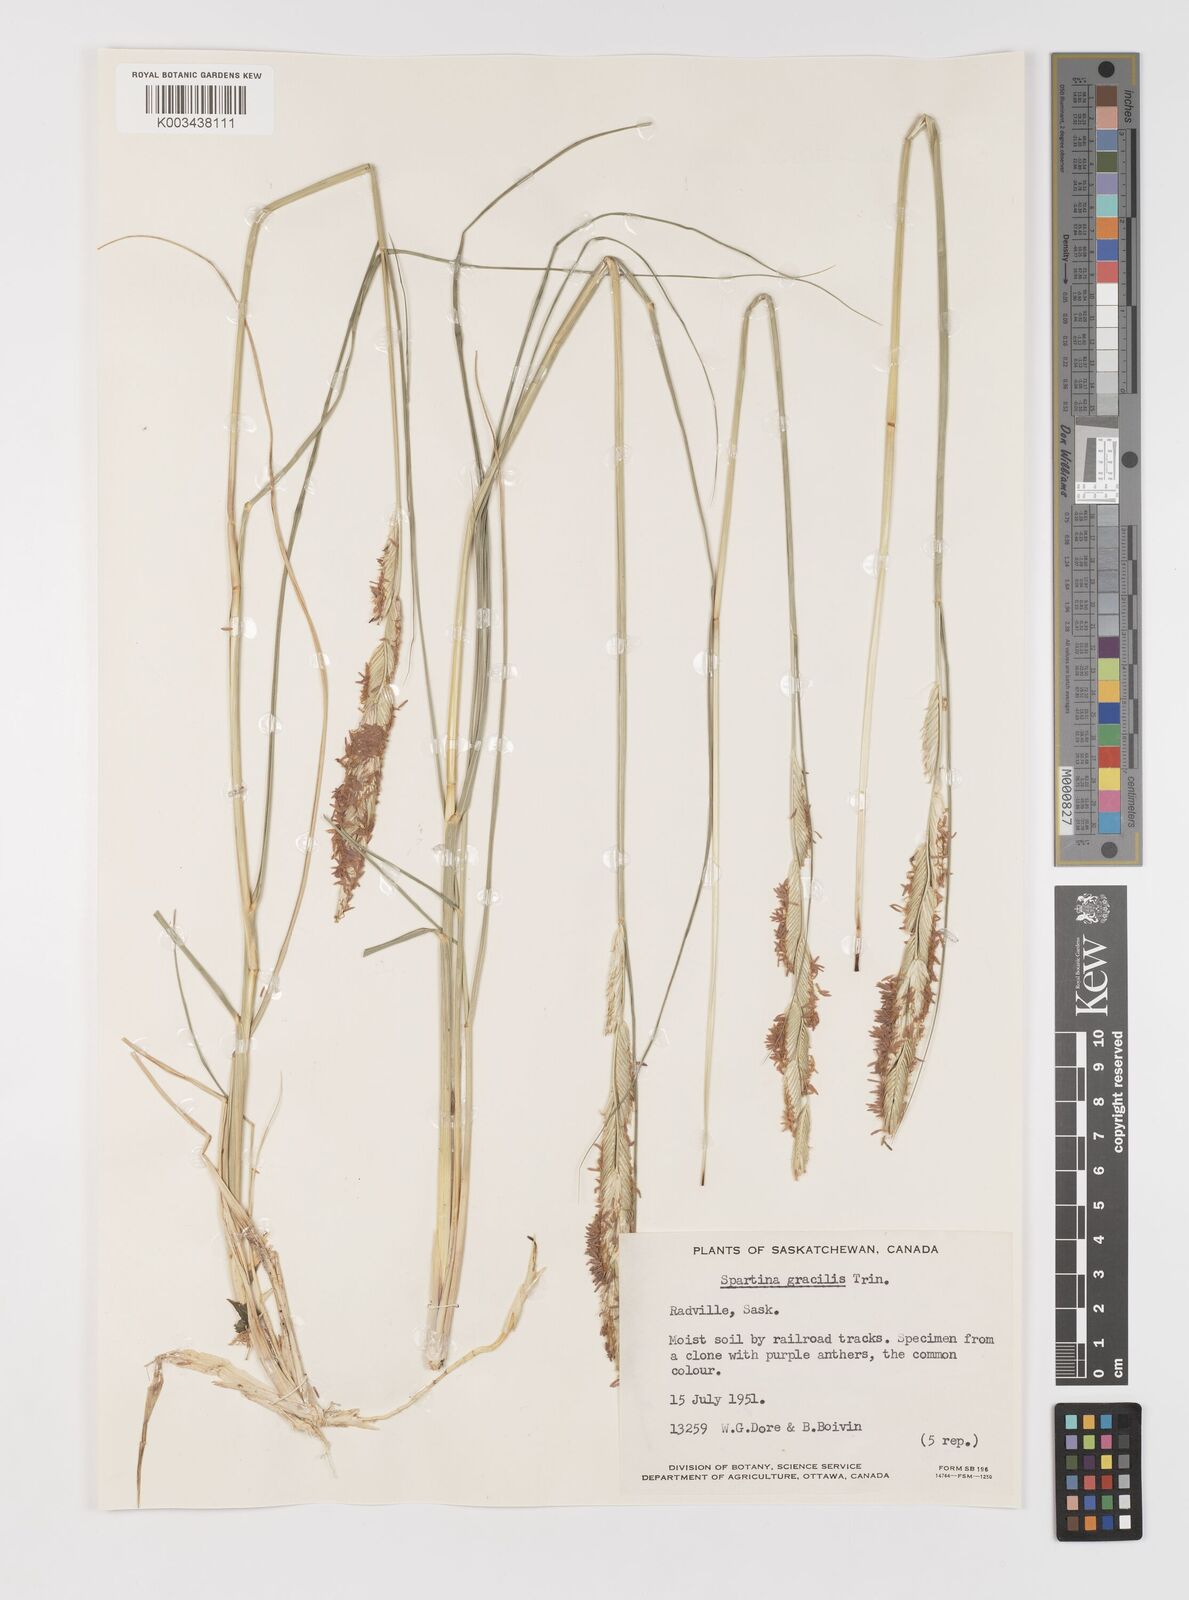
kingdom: Plantae
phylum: Tracheophyta
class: Liliopsida
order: Poales
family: Poaceae
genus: Sporobolus
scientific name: Sporobolus hookerianus
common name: Alkali cordgrass
